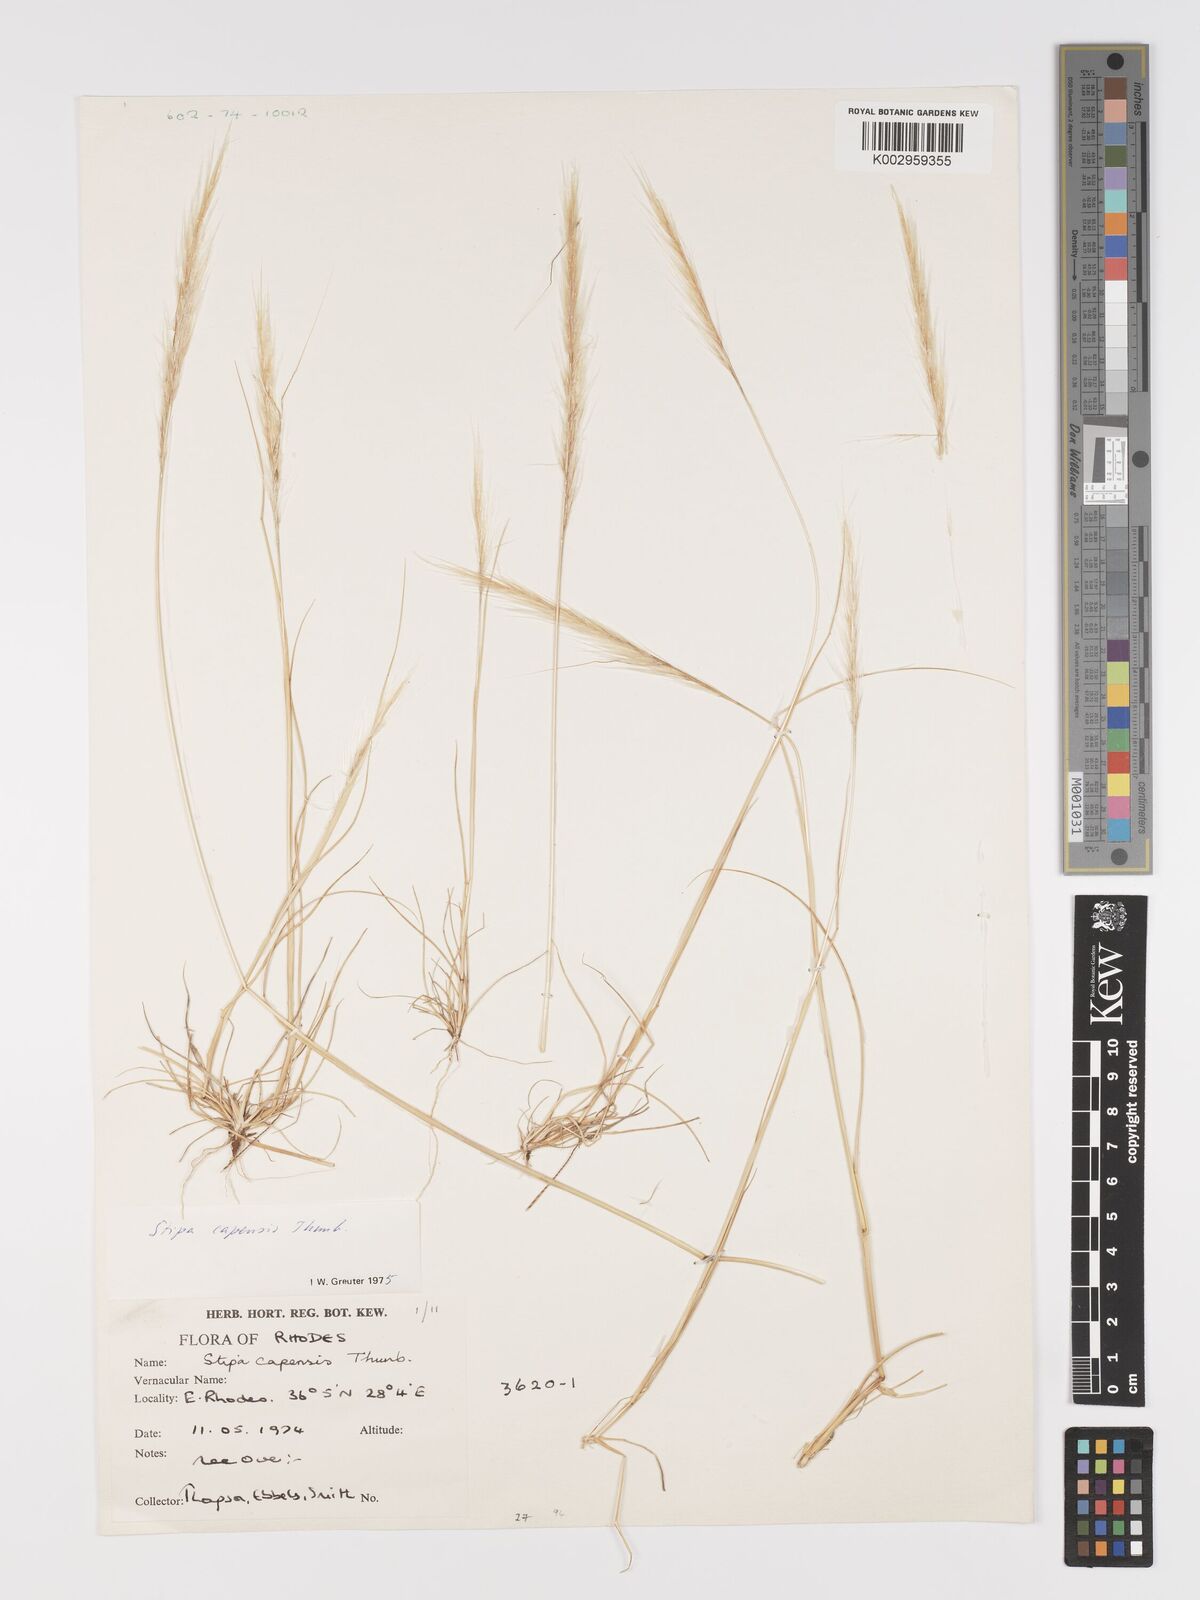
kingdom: Plantae
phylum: Tracheophyta
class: Liliopsida
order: Poales
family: Poaceae
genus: Stipellula
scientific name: Stipellula capensis
